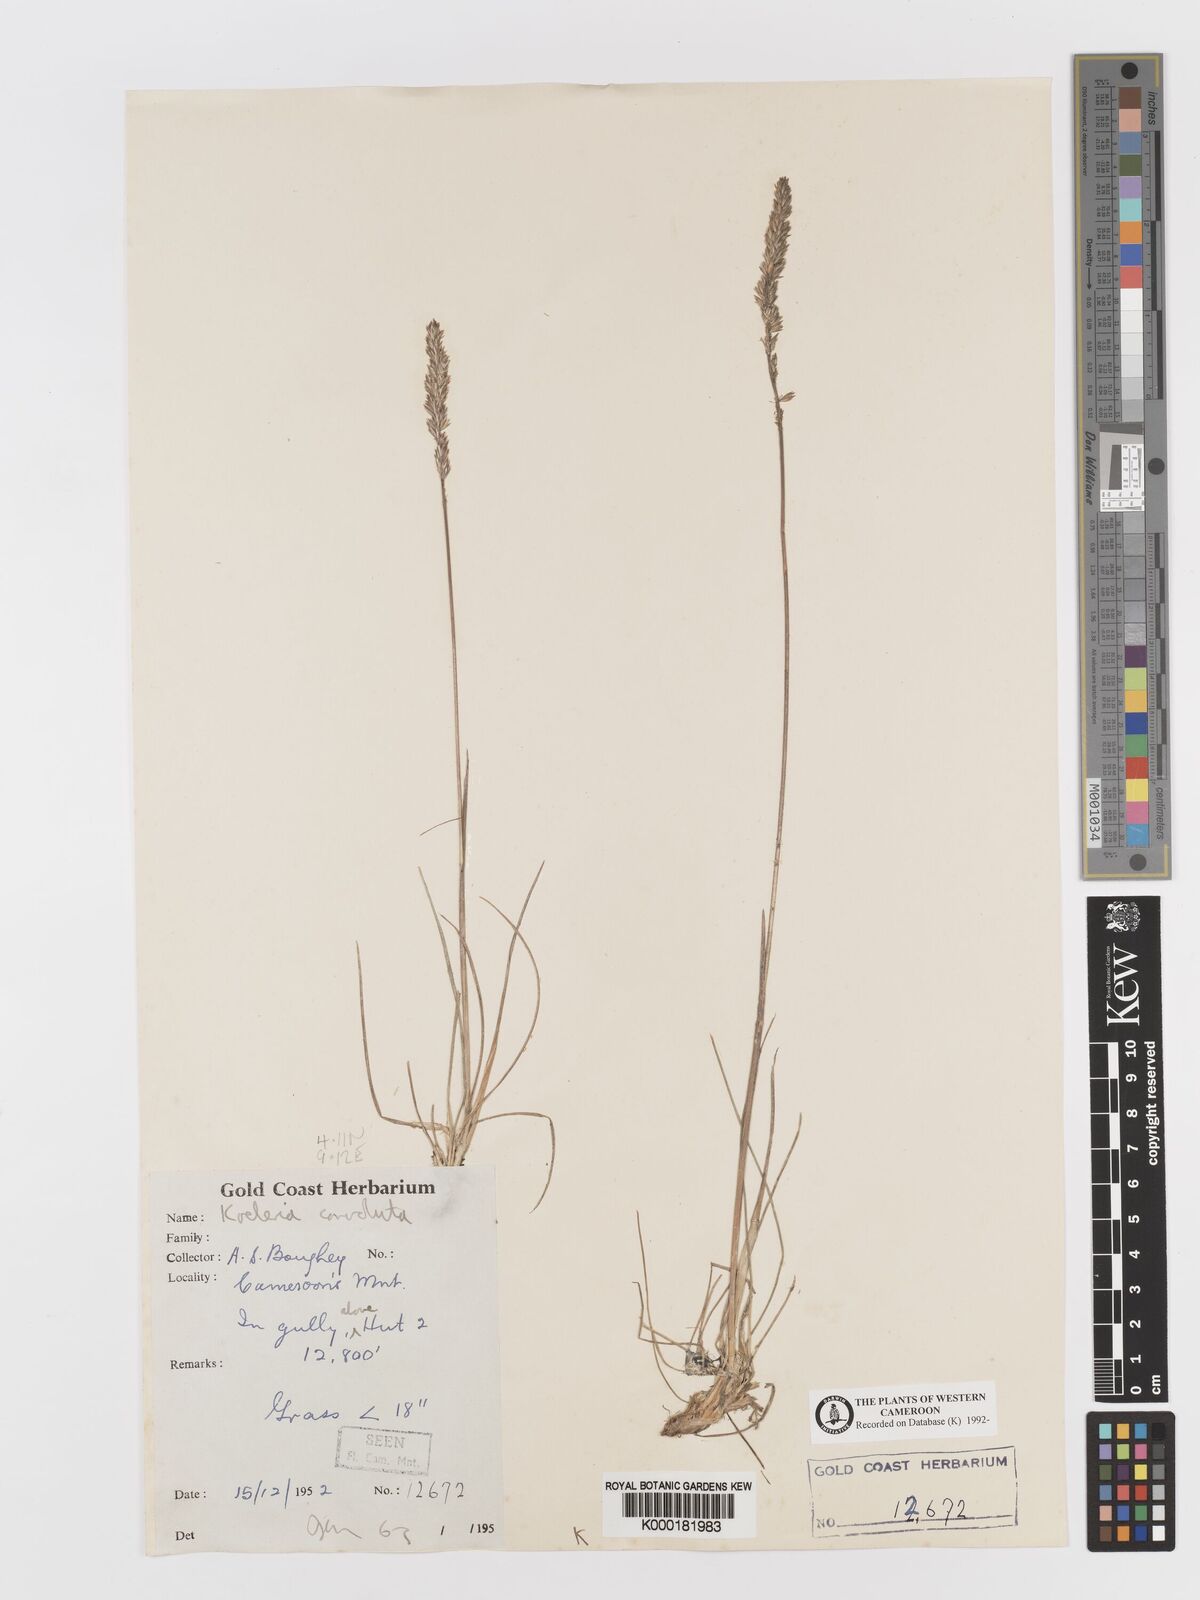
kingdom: Plantae
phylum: Tracheophyta
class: Liliopsida
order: Poales
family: Poaceae
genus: Koeleria
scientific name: Koeleria capensis
